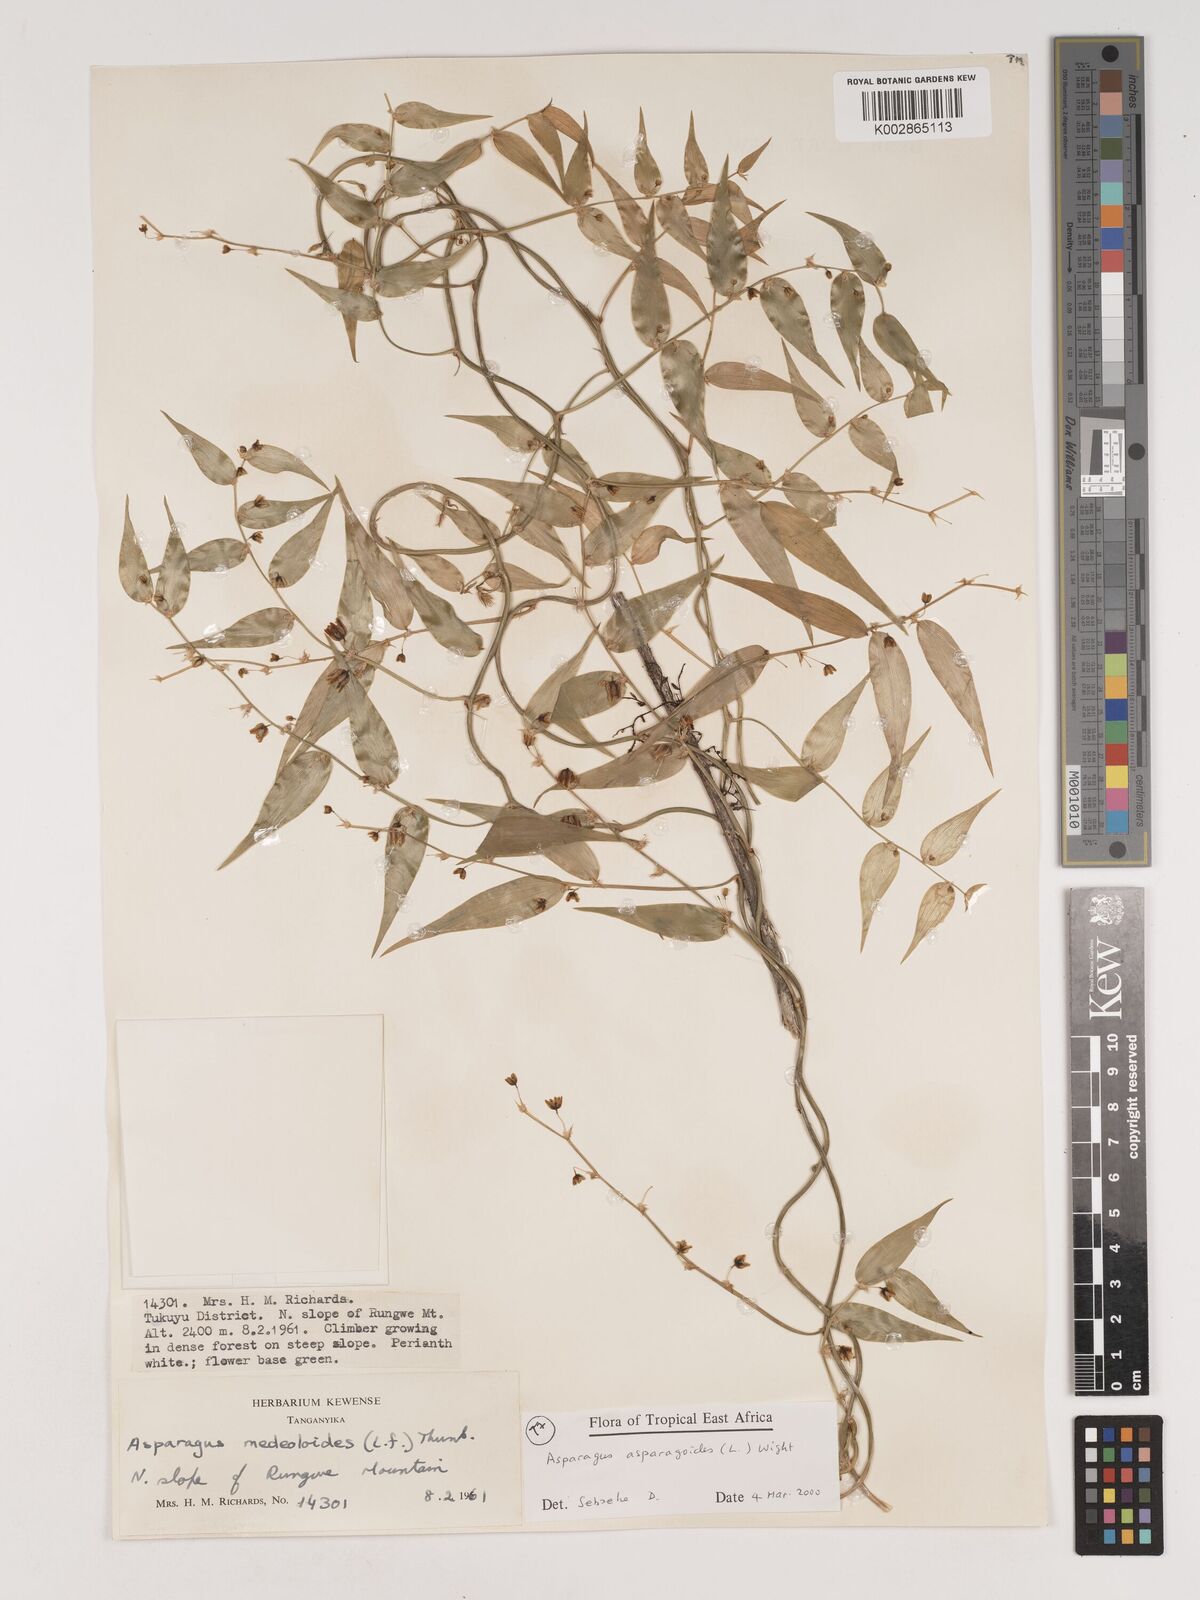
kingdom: Plantae
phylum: Tracheophyta
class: Liliopsida
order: Asparagales
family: Asparagaceae
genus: Asparagus
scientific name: Asparagus asparagoides
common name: African asparagus fern
